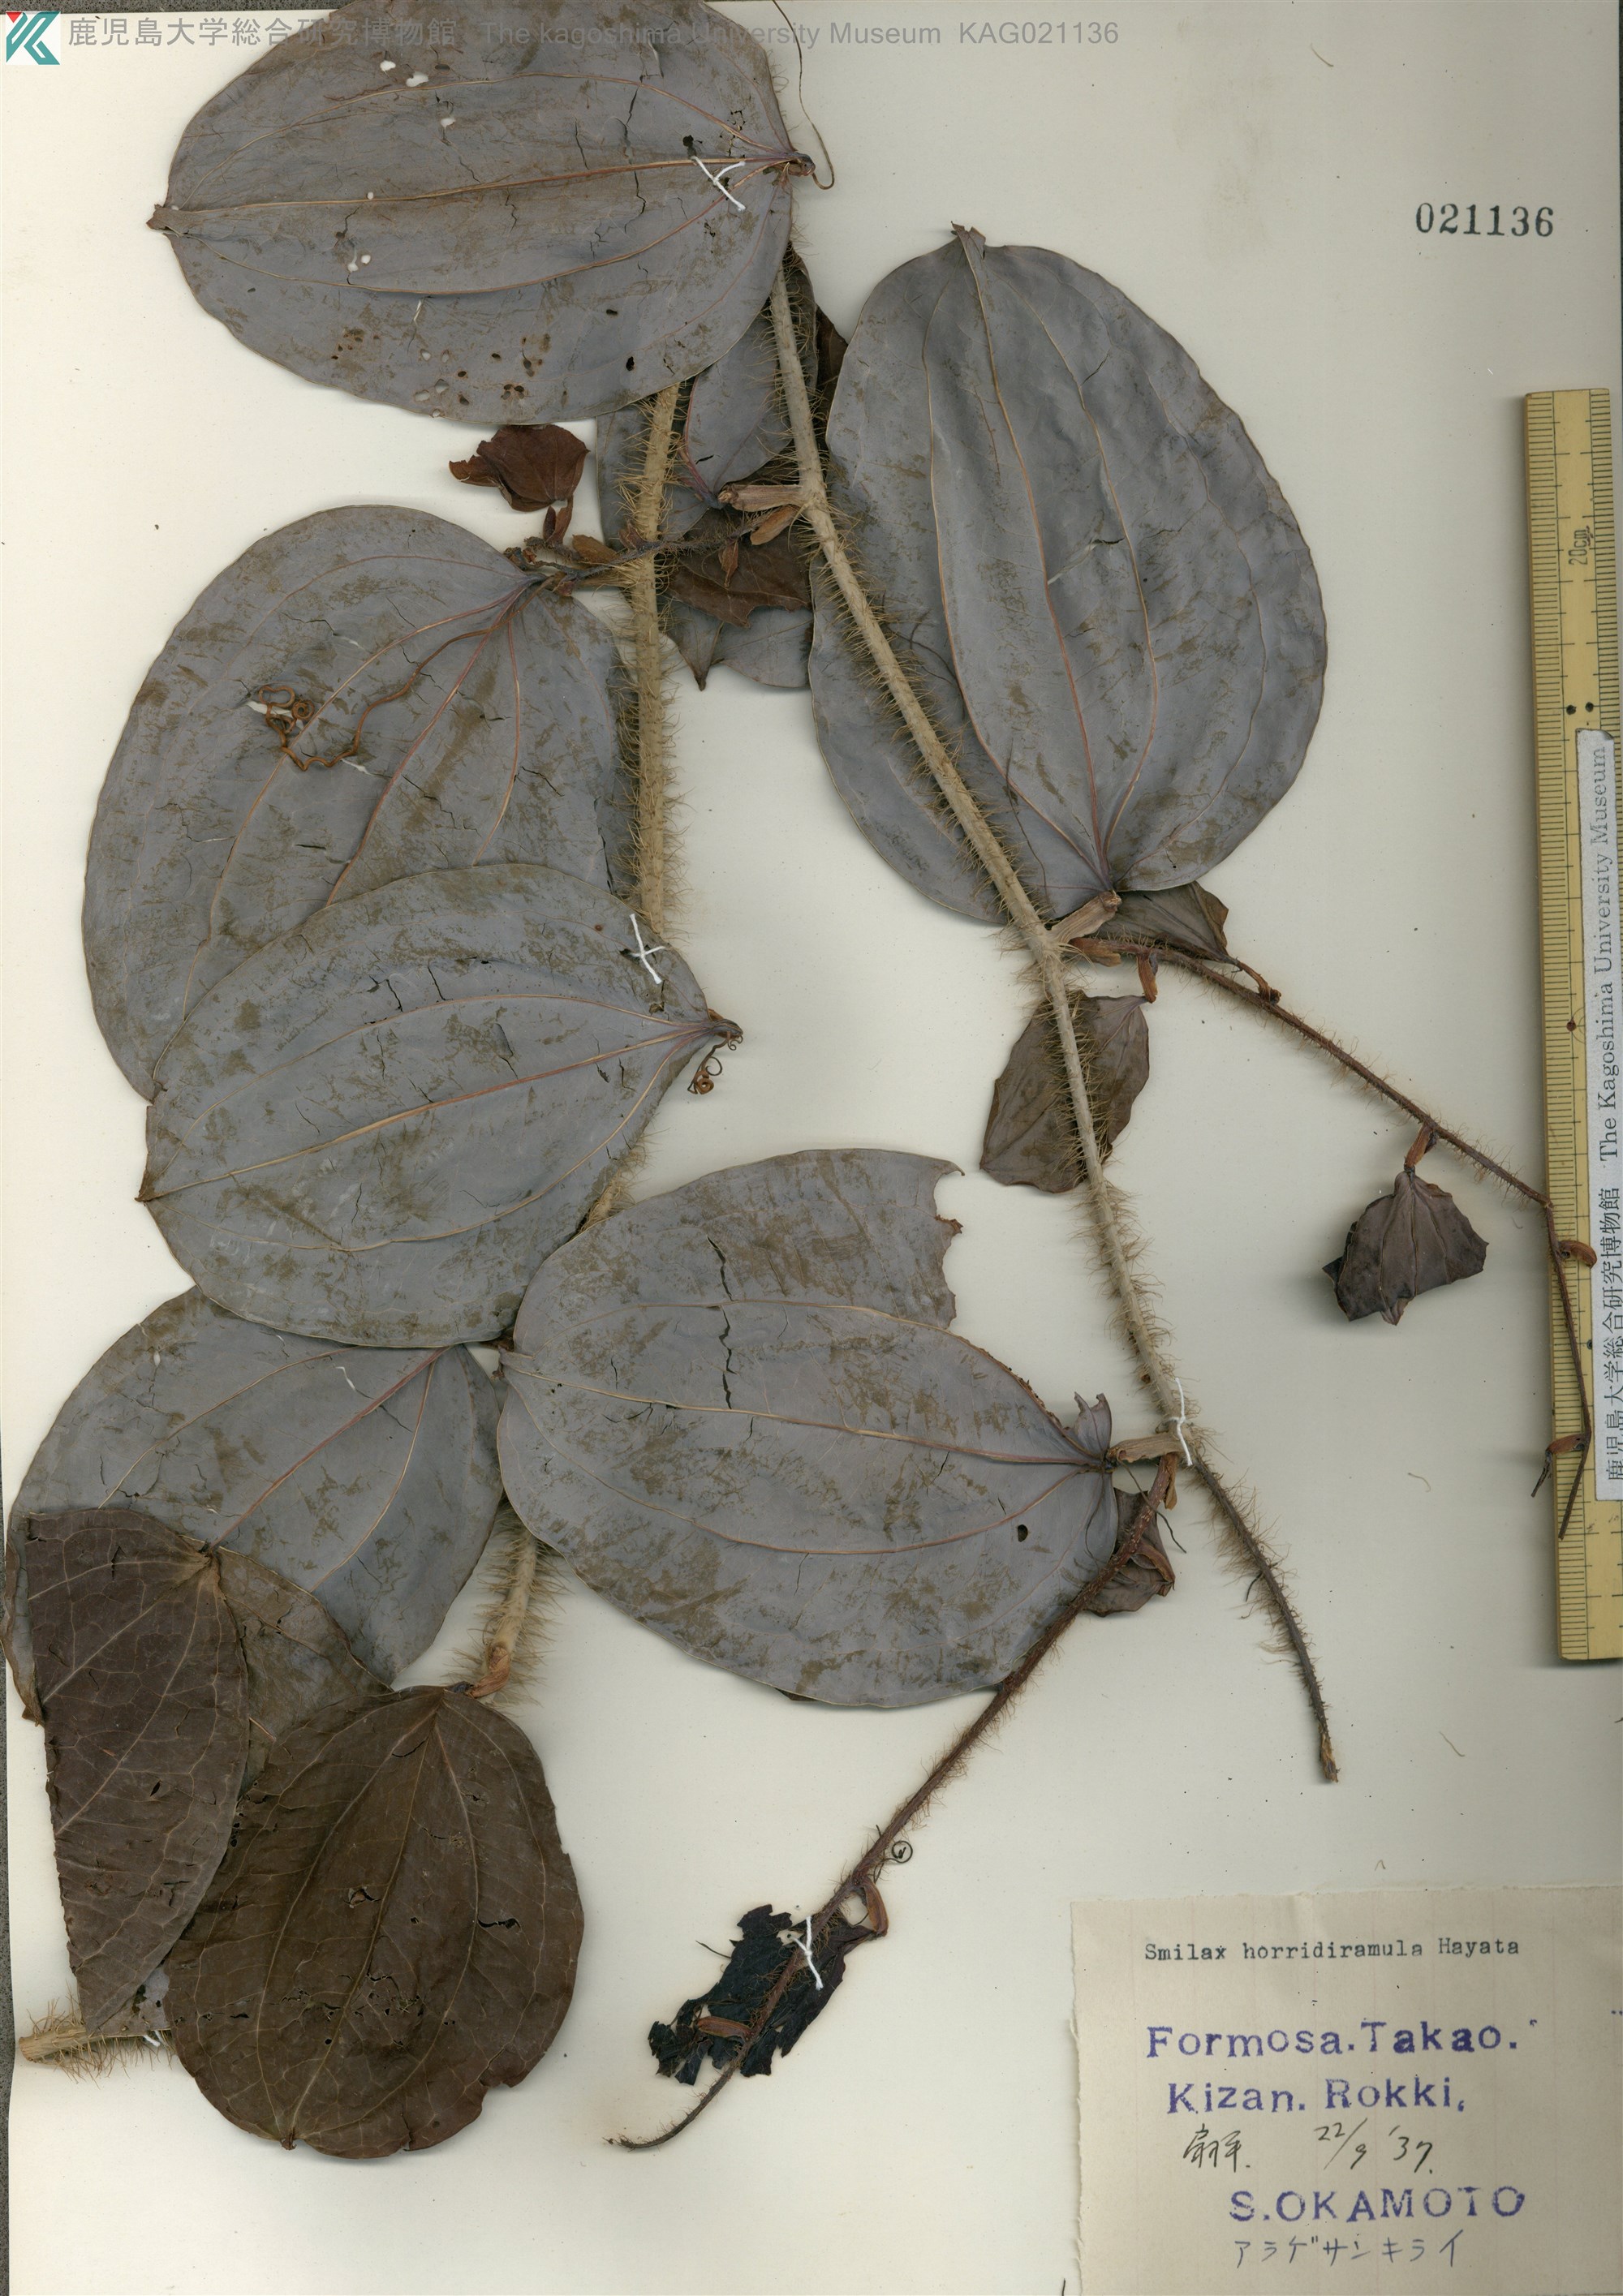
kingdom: Plantae
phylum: Tracheophyta
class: Liliopsida
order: Liliales
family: Smilacaceae
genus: Smilax
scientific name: Smilax horridiramula
